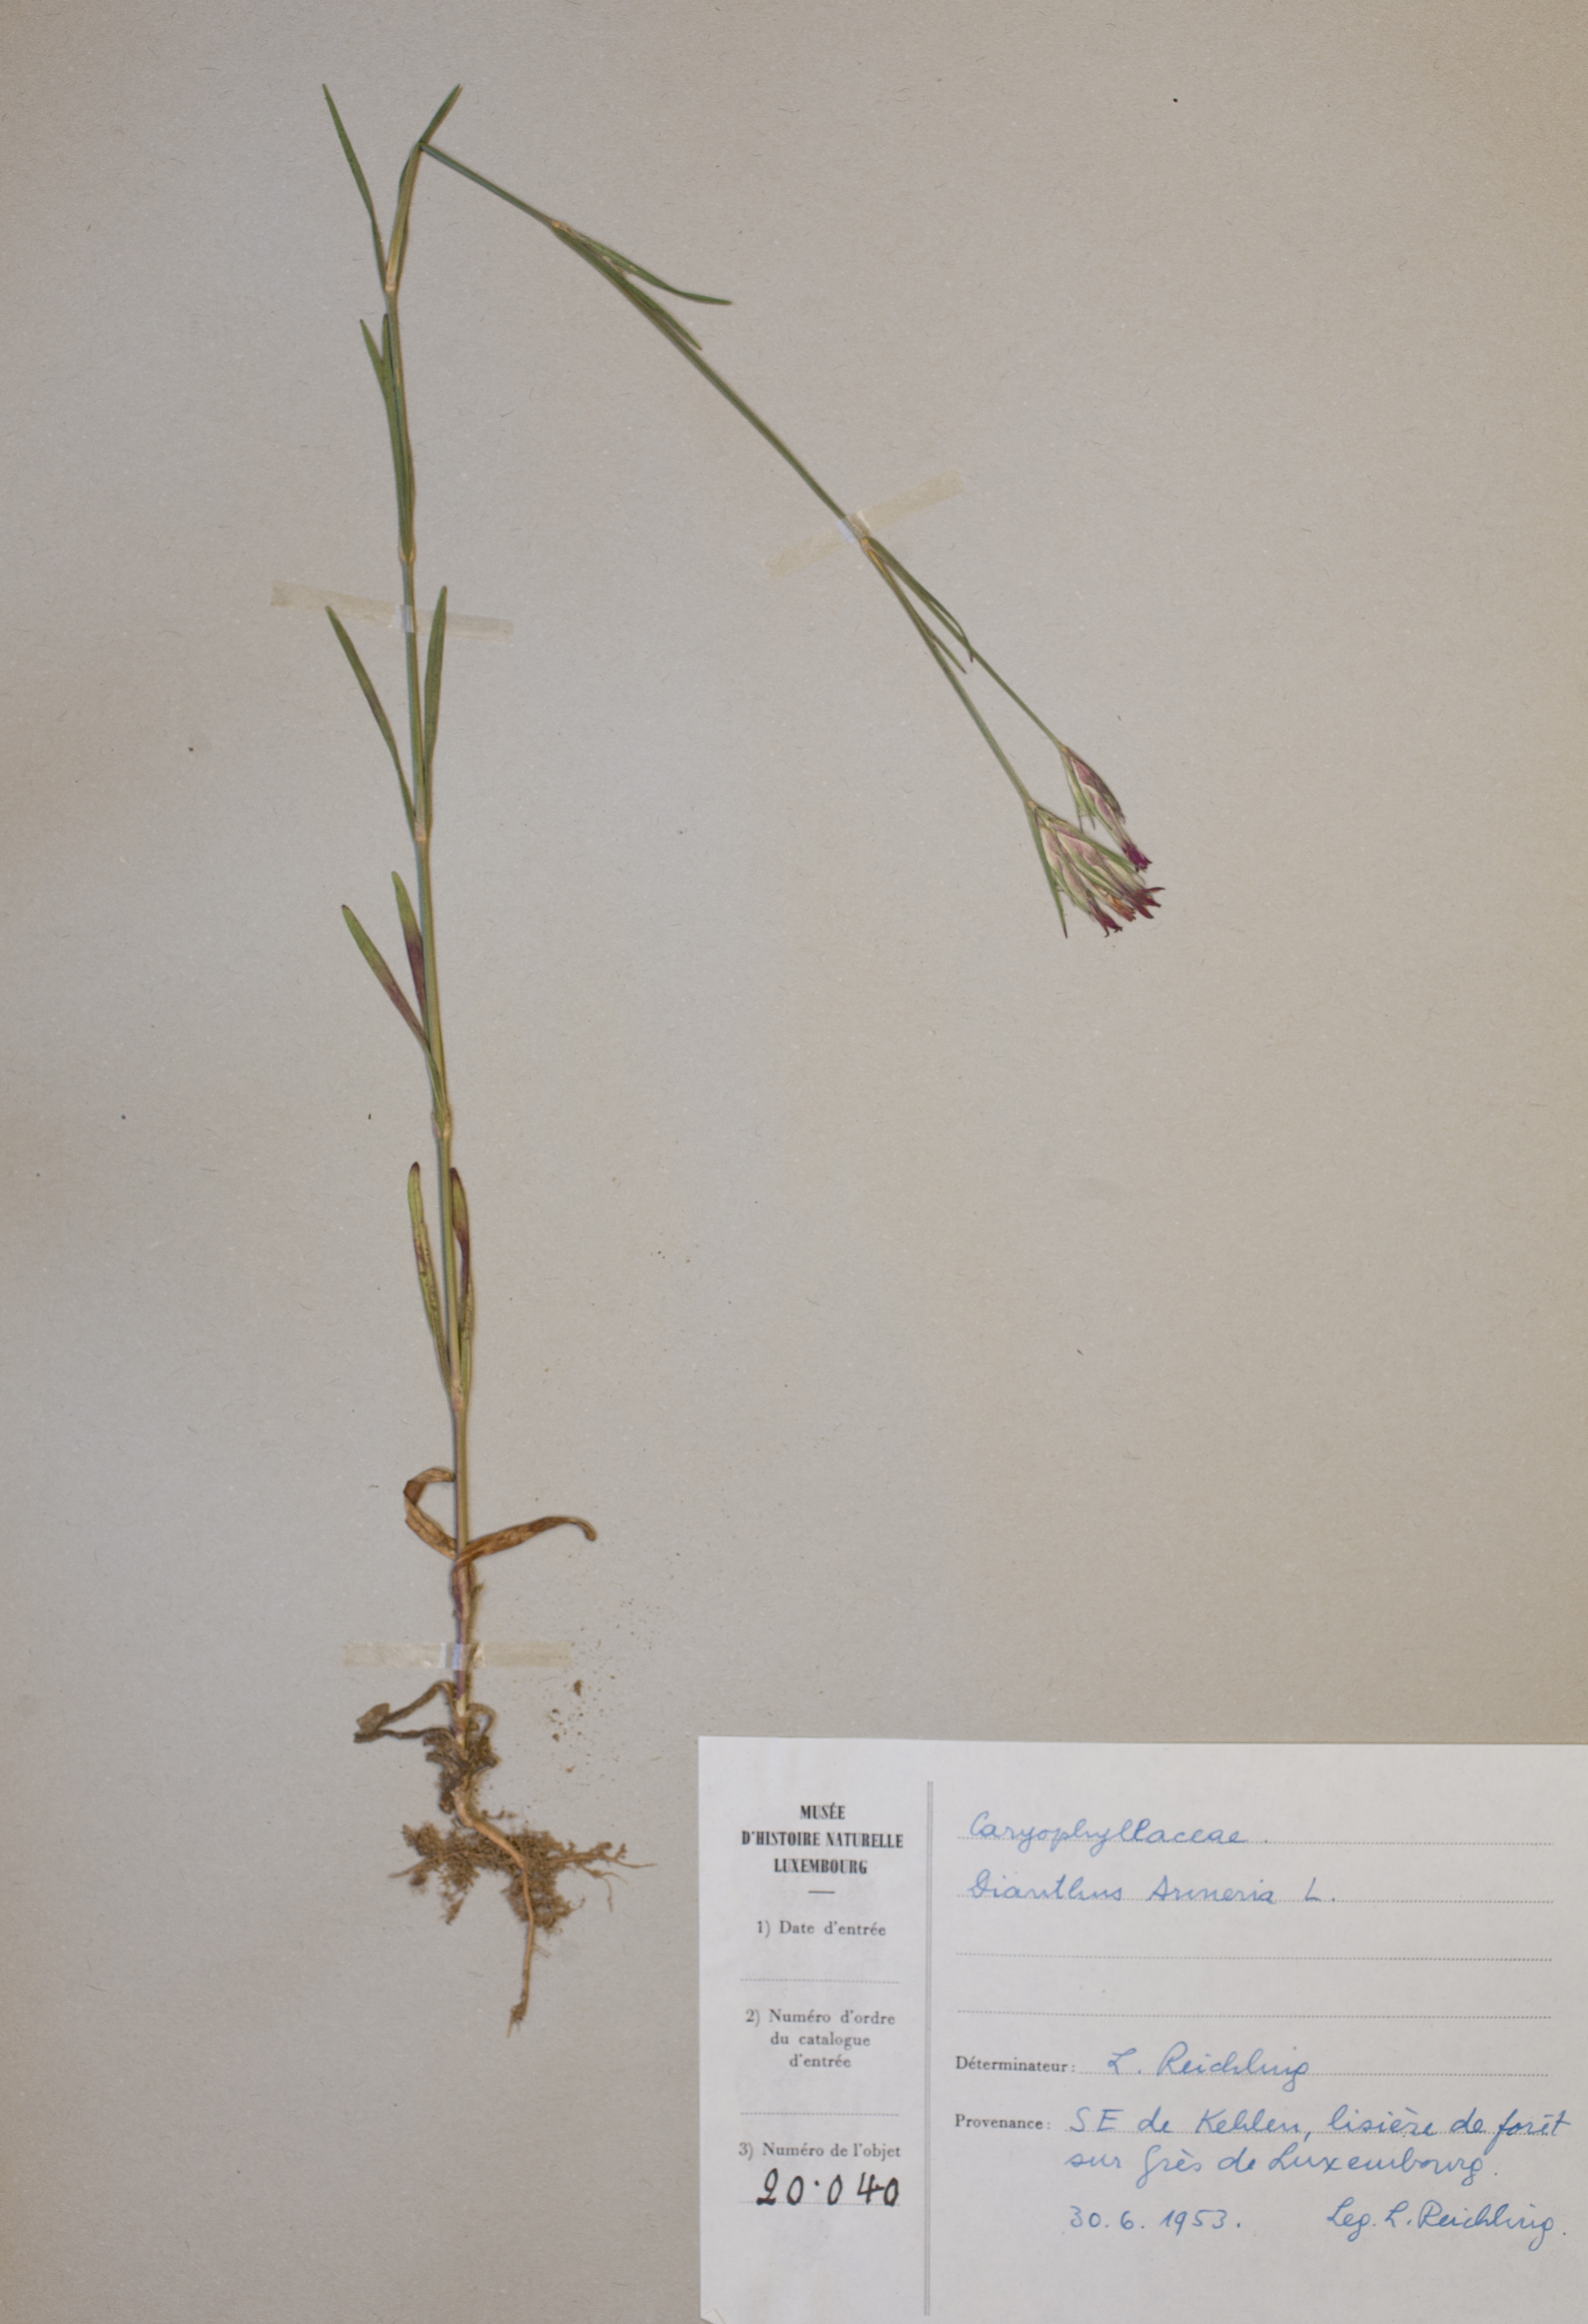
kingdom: Plantae
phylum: Tracheophyta
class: Magnoliopsida
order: Caryophyllales
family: Caryophyllaceae
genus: Dianthus
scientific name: Dianthus armeria
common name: Deptford pink
